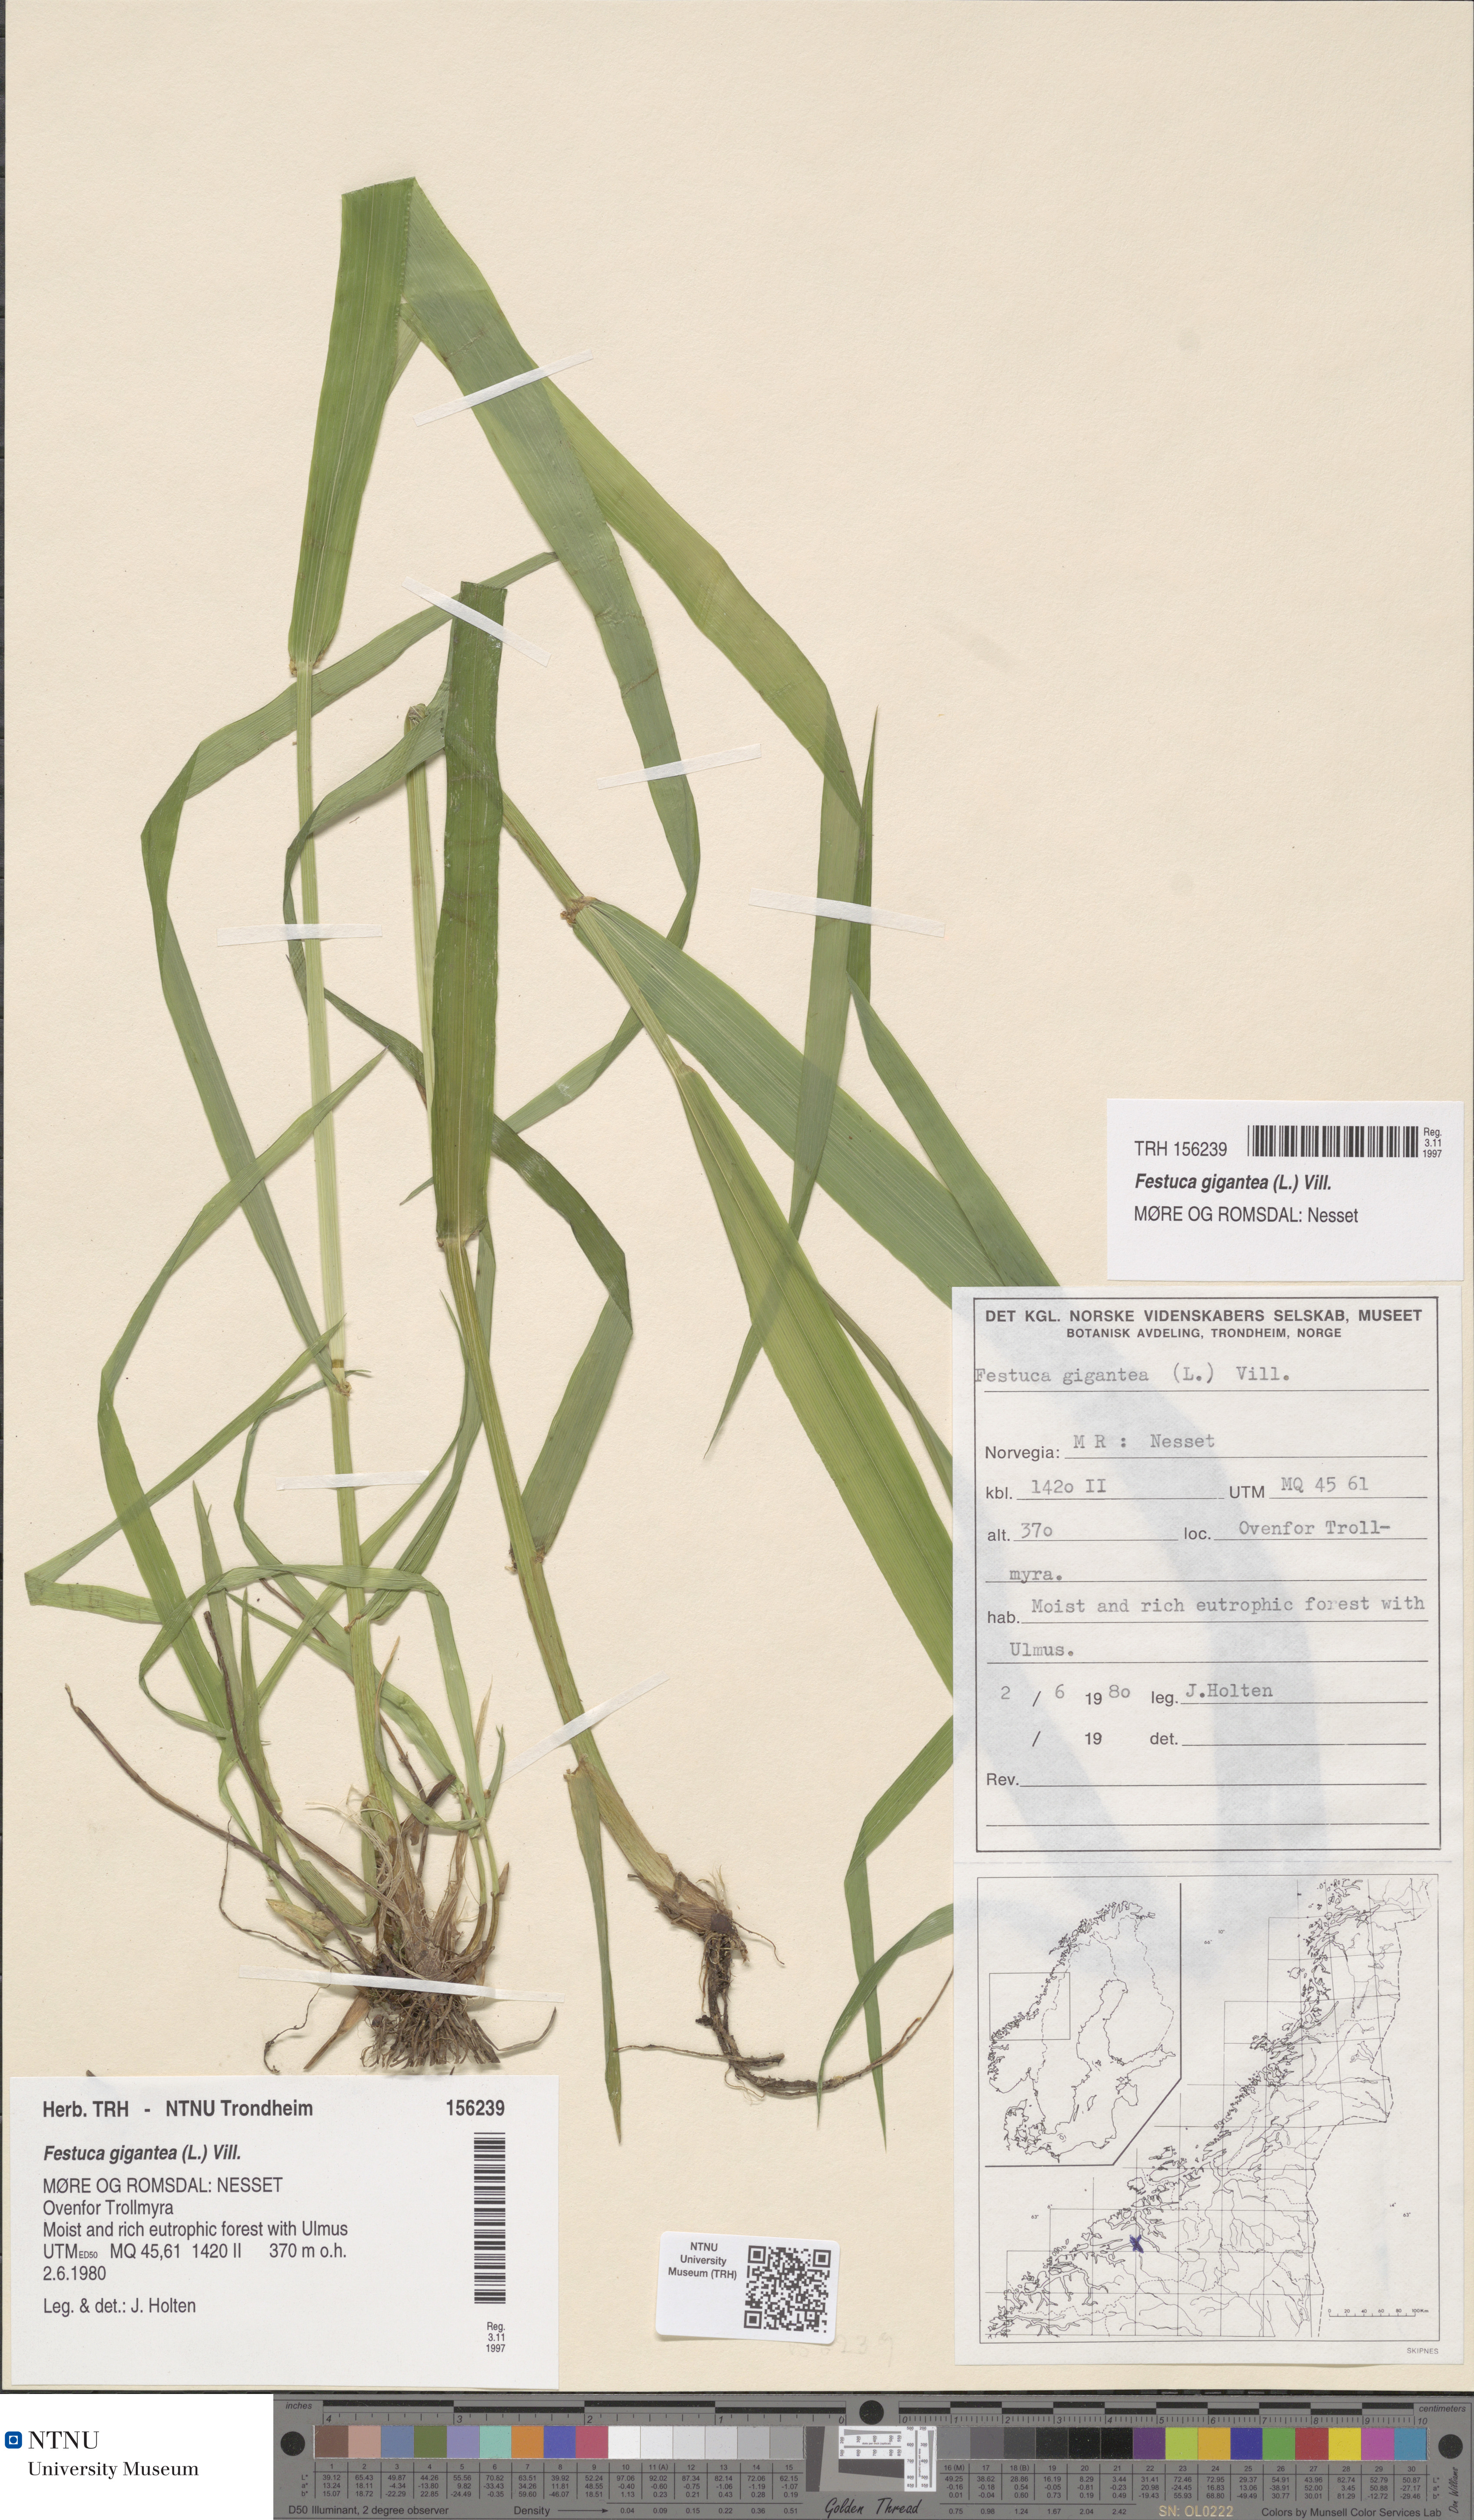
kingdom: Plantae
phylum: Tracheophyta
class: Liliopsida
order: Poales
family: Poaceae
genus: Lolium
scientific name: Lolium giganteum
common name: Giant fescue
